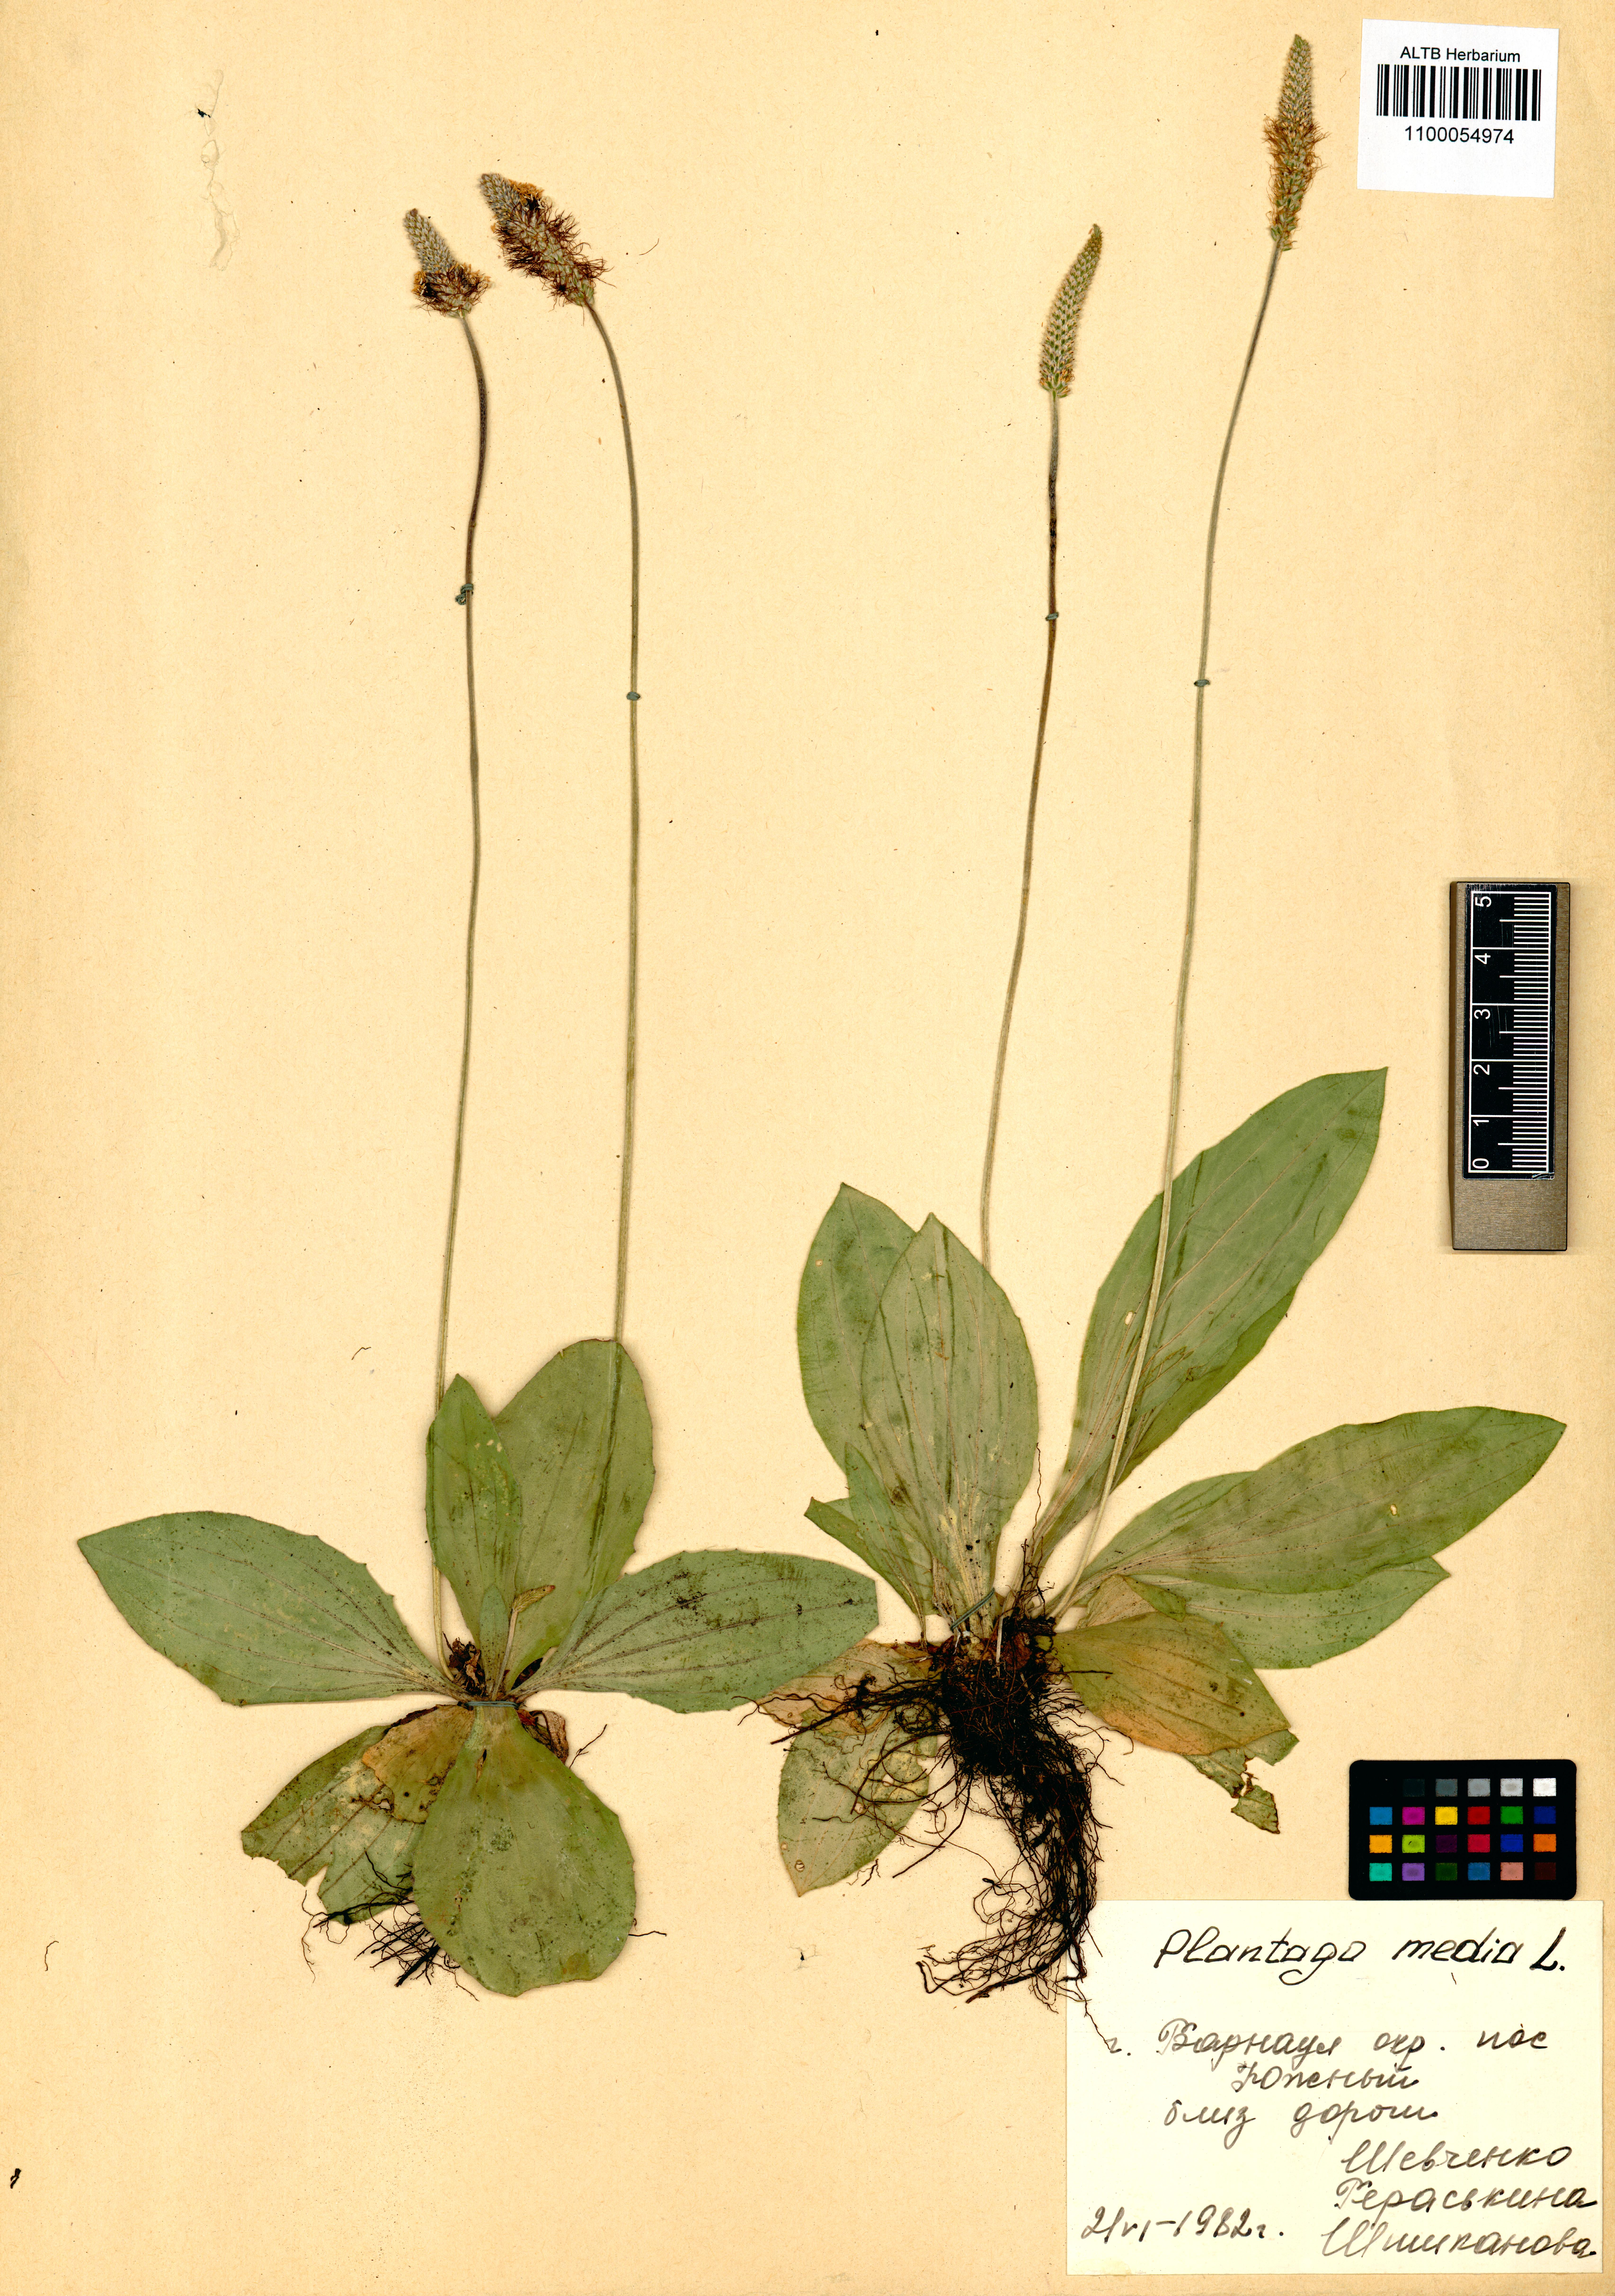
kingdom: Plantae
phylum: Tracheophyta
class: Magnoliopsida
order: Lamiales
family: Plantaginaceae
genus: Plantago
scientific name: Plantago media
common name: Hoary plantain
